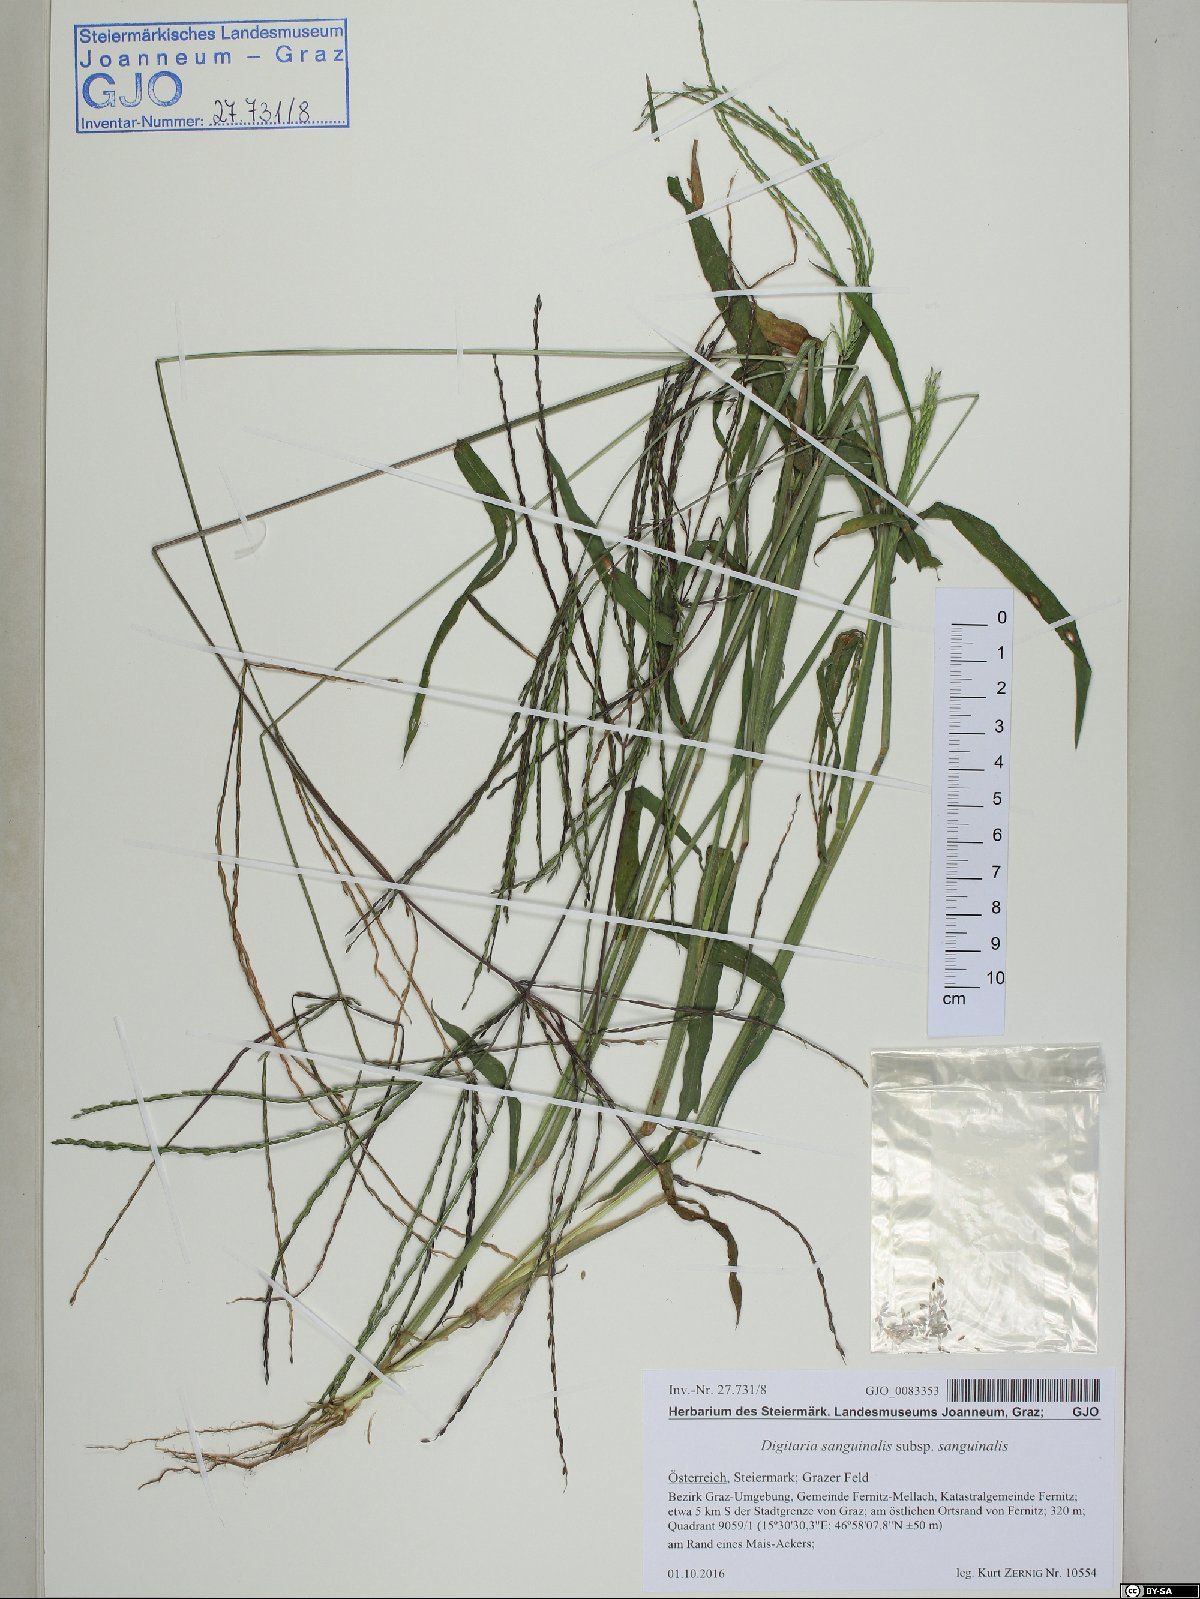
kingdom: Plantae
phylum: Tracheophyta
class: Liliopsida
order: Poales
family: Poaceae
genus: Digitaria
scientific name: Digitaria sanguinalis
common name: Hairy crabgrass
